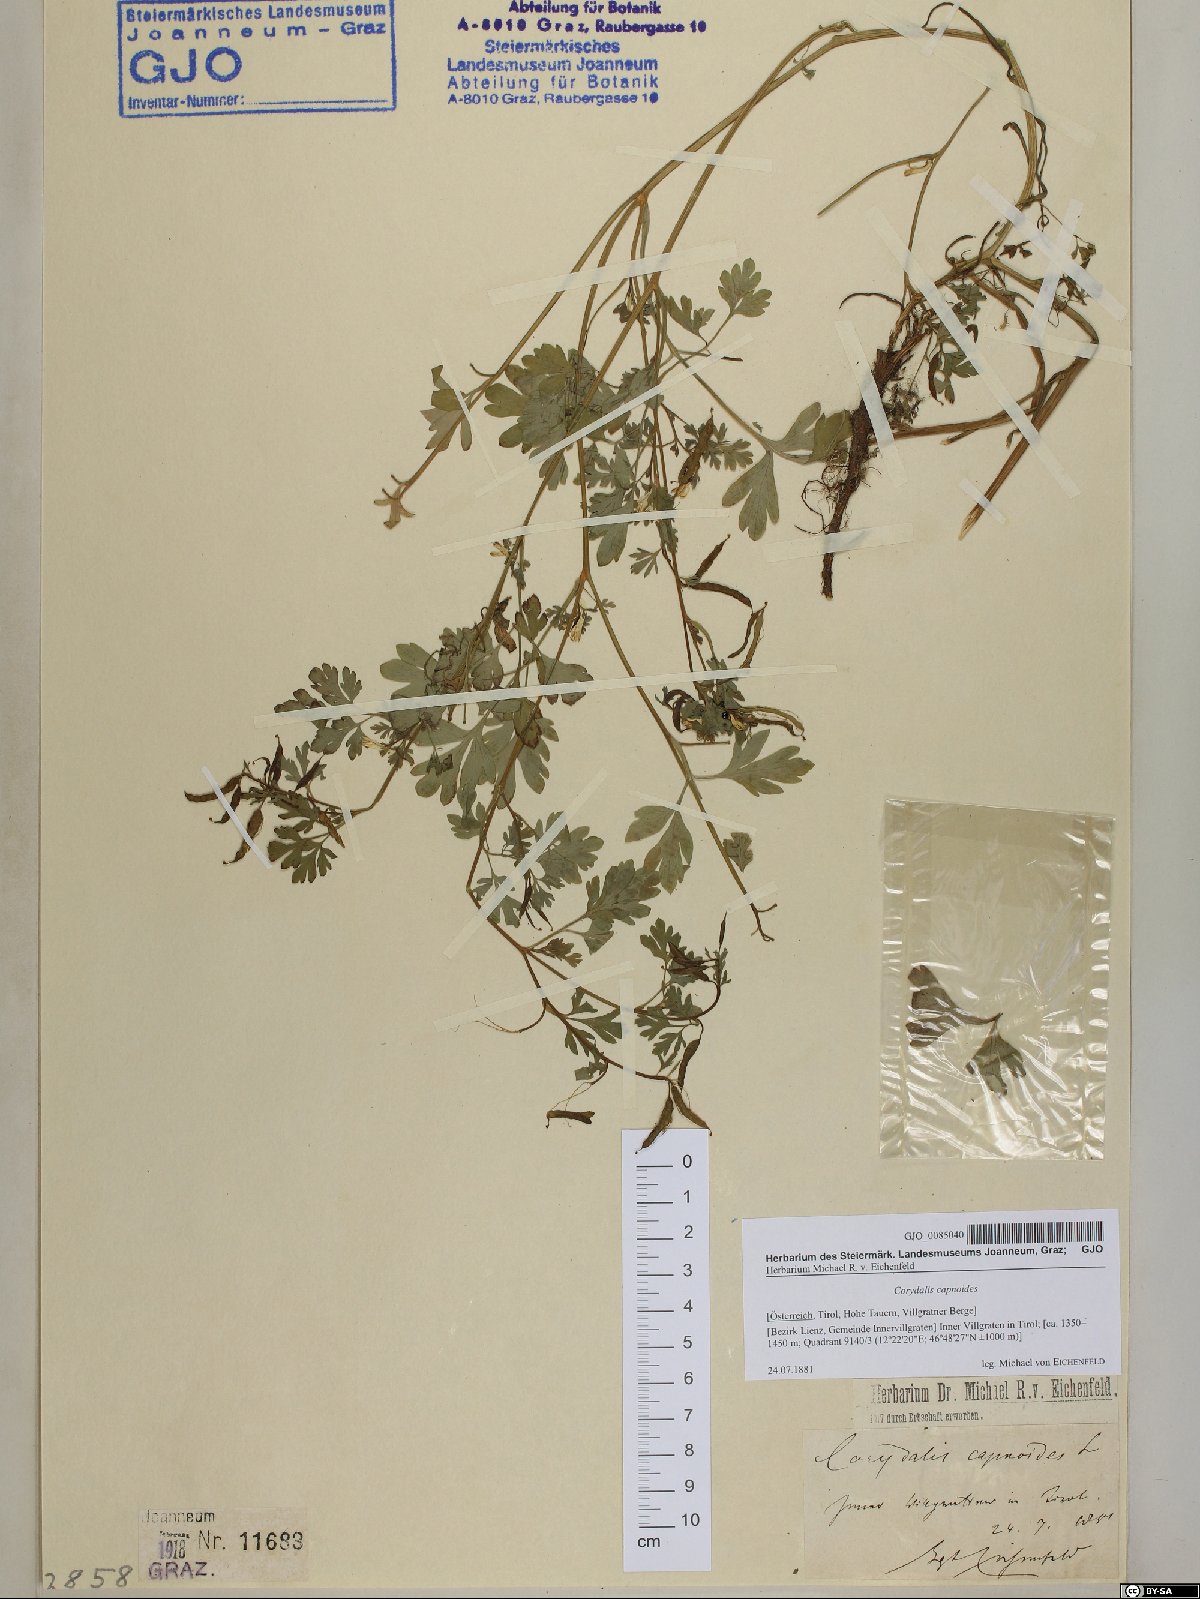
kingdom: Plantae
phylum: Tracheophyta
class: Magnoliopsida
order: Ranunculales
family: Papaveraceae
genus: Corydalis
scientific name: Corydalis capnoides
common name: Beaked corydalis
